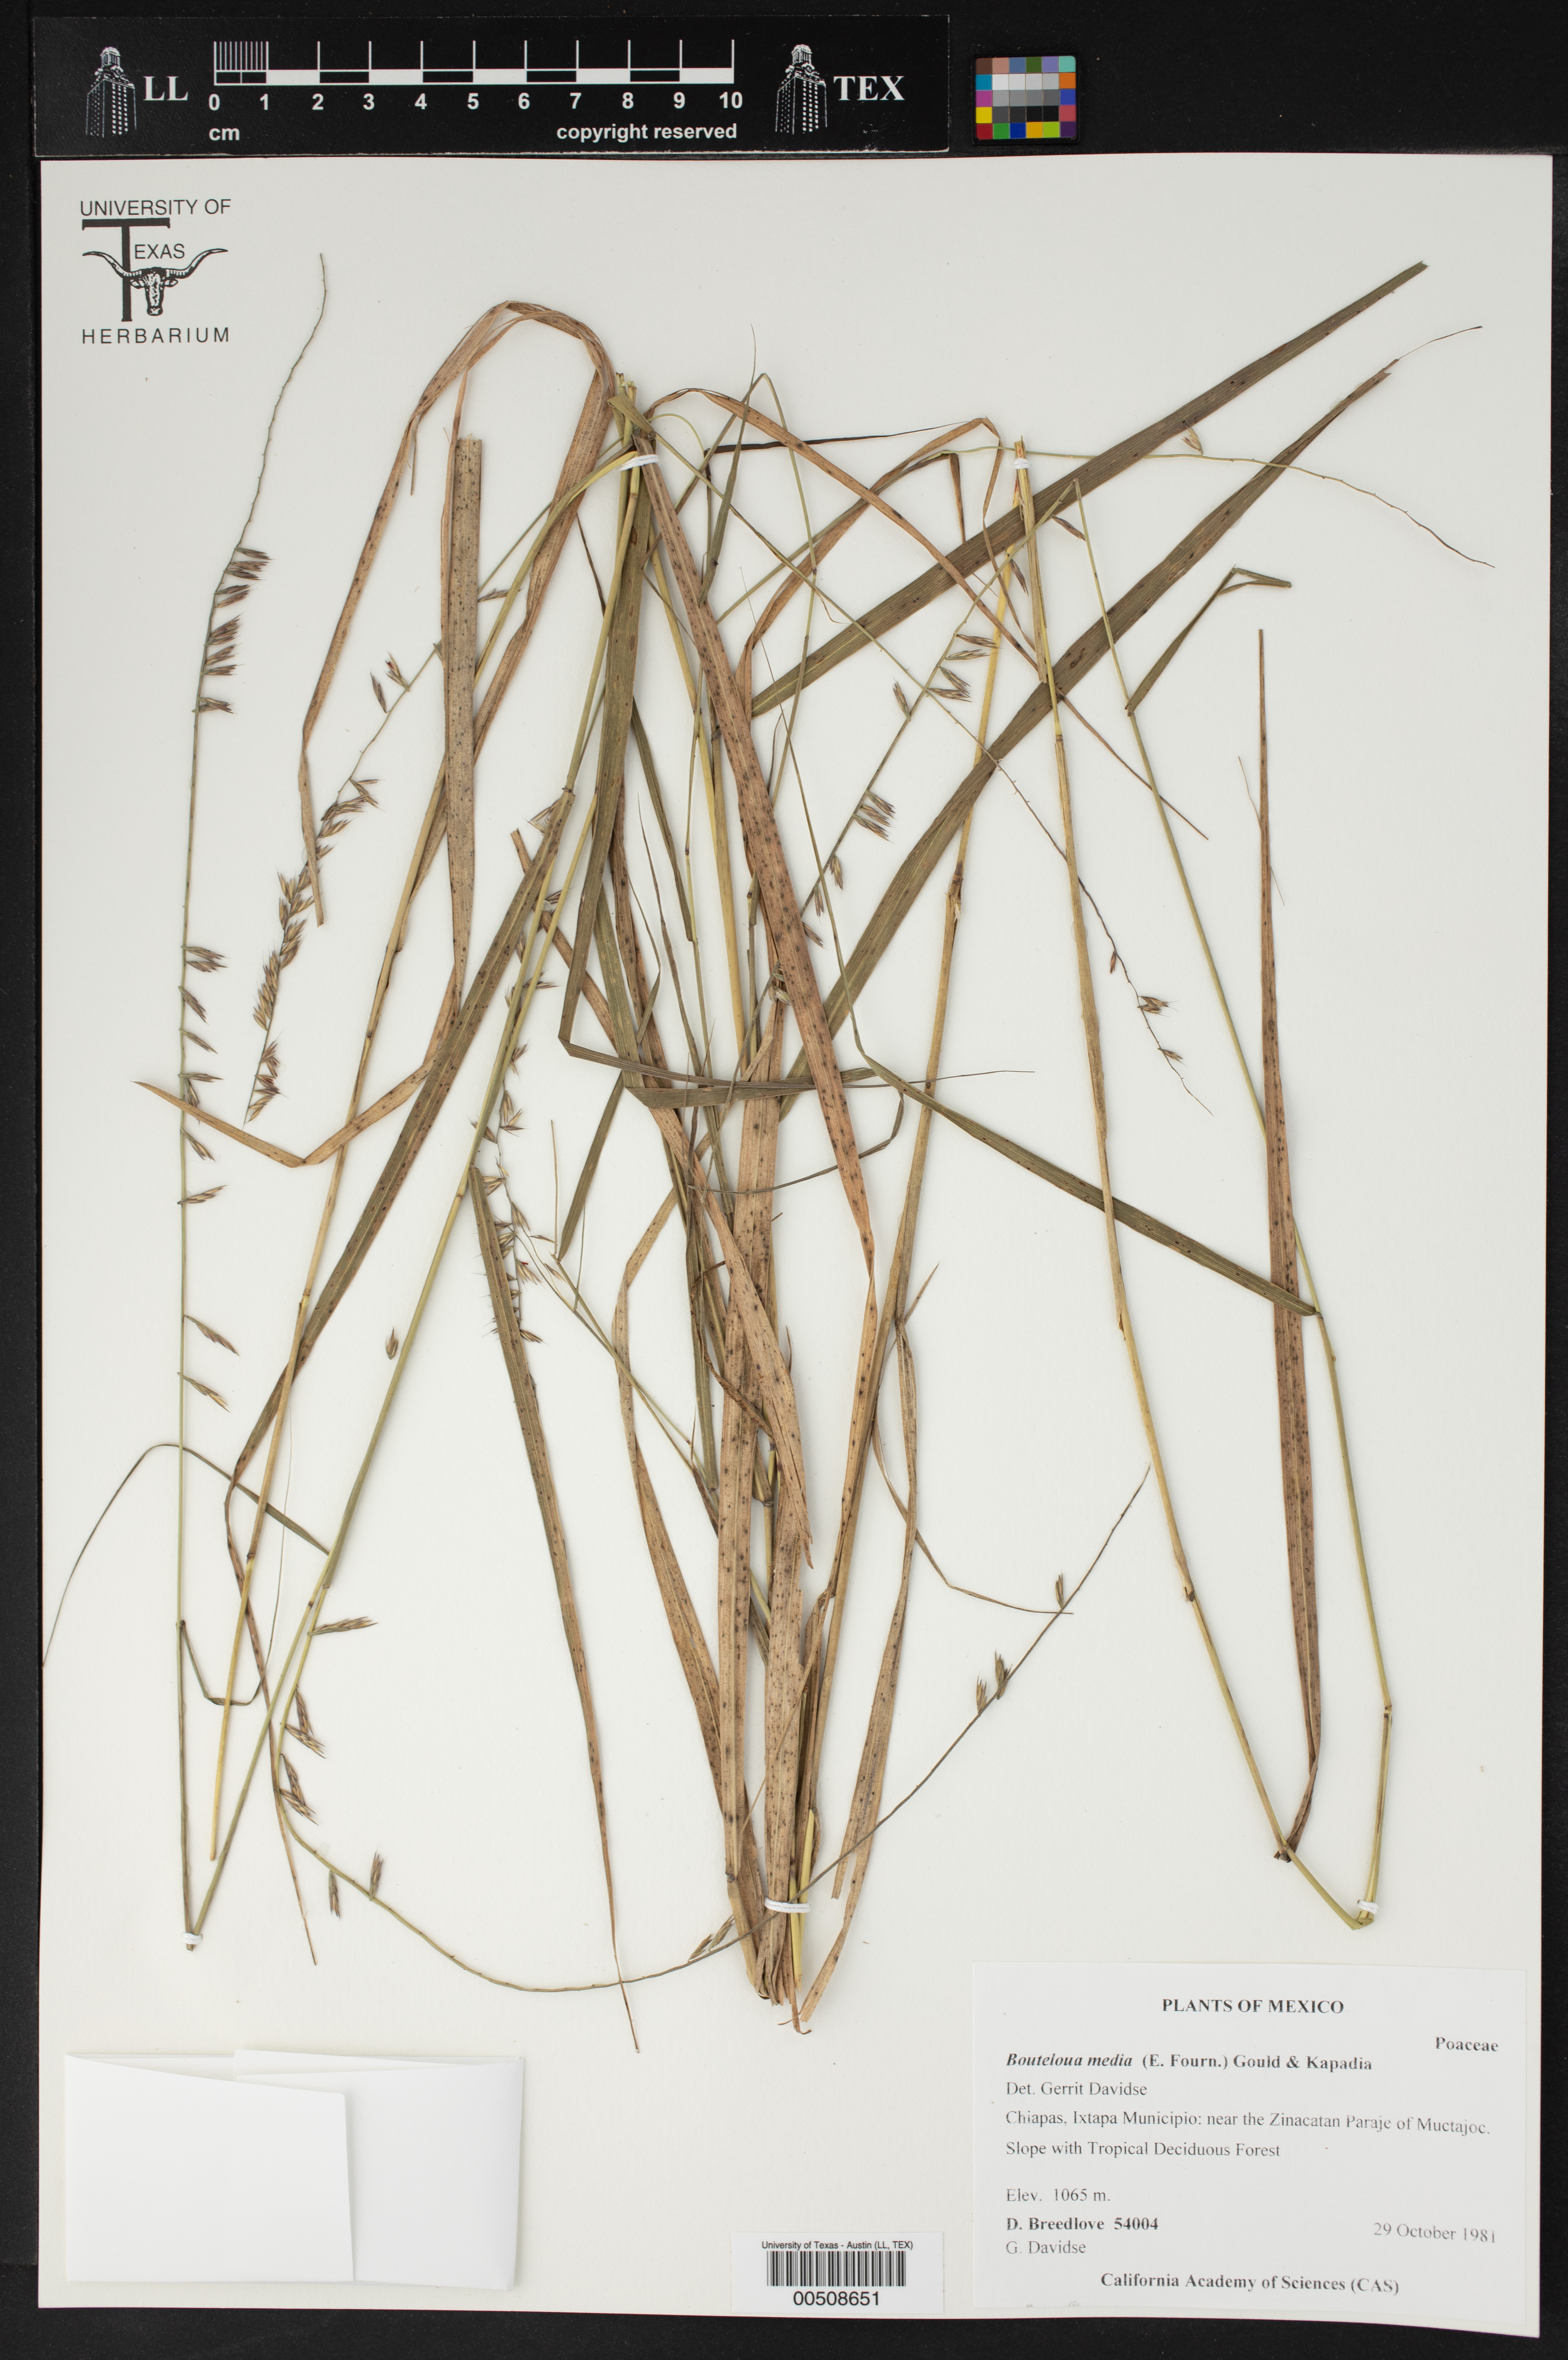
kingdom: Plantae
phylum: Tracheophyta
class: Liliopsida
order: Poales
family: Poaceae
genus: Bouteloua
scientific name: Bouteloua media
